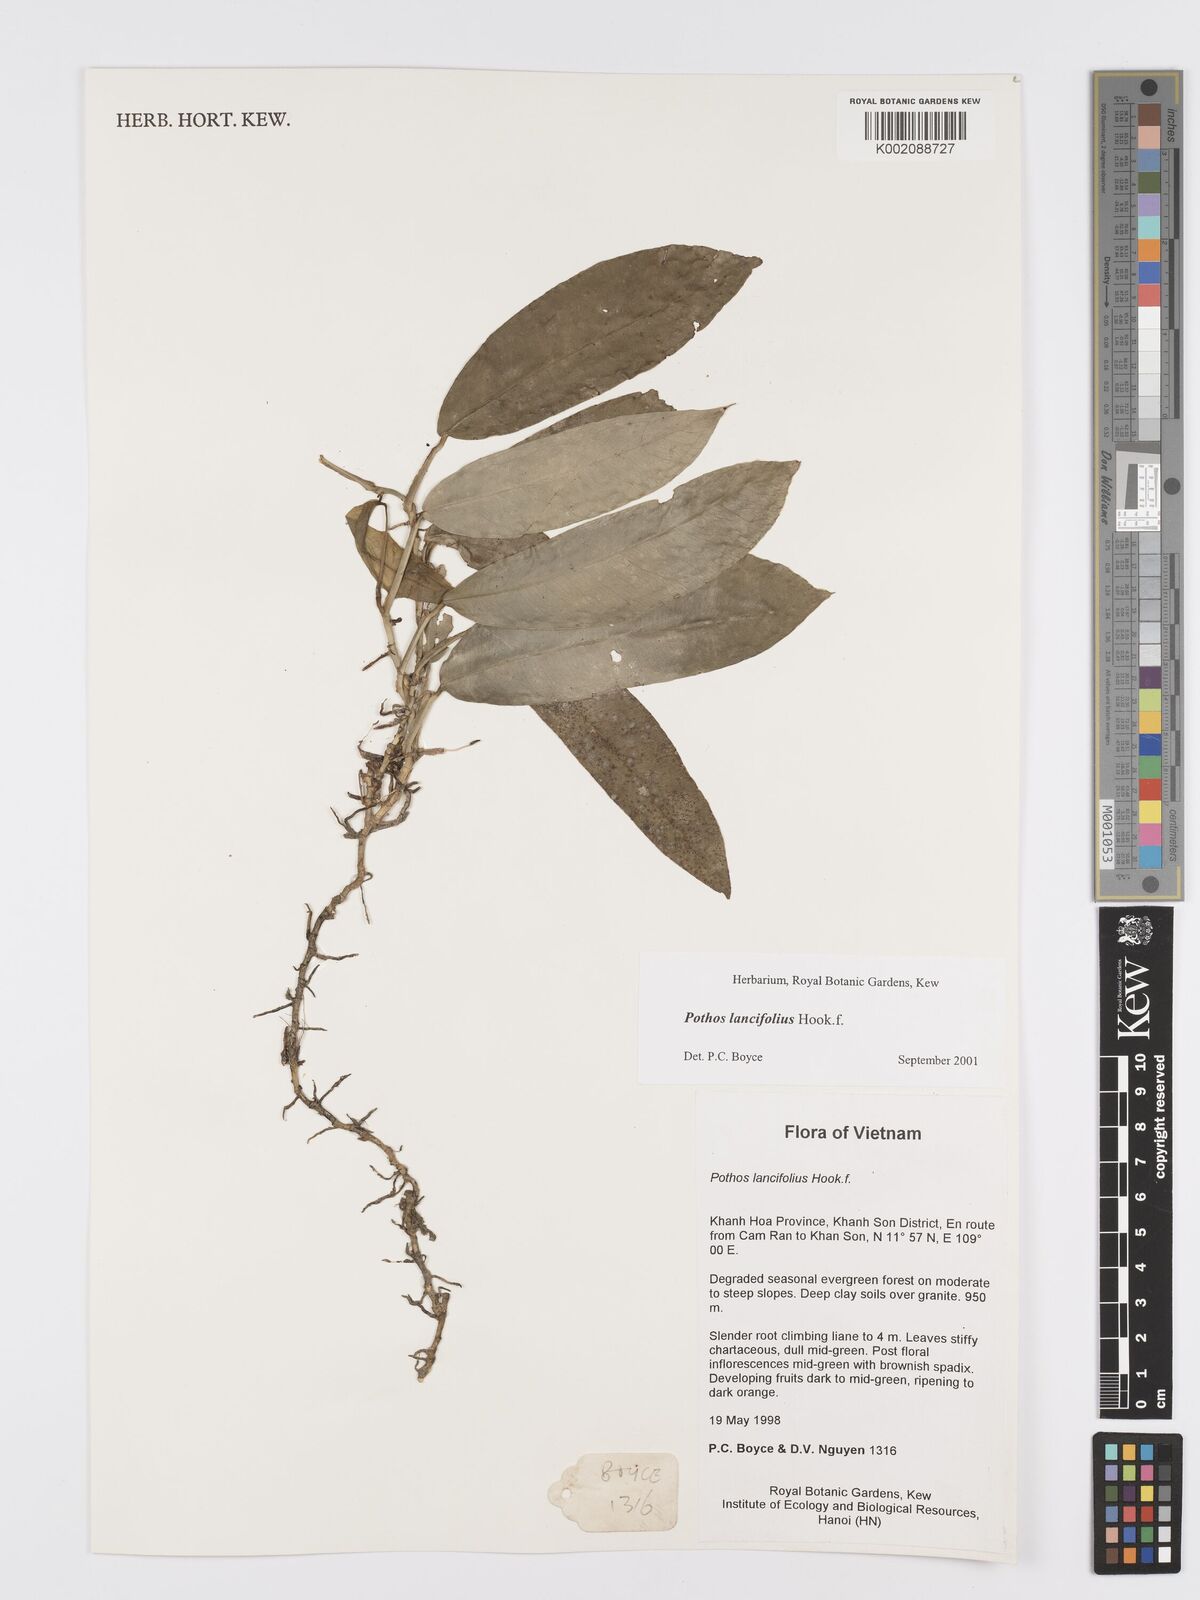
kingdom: Plantae
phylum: Tracheophyta
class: Liliopsida
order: Alismatales
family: Araceae
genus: Pothos
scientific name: Pothos lancifolius
